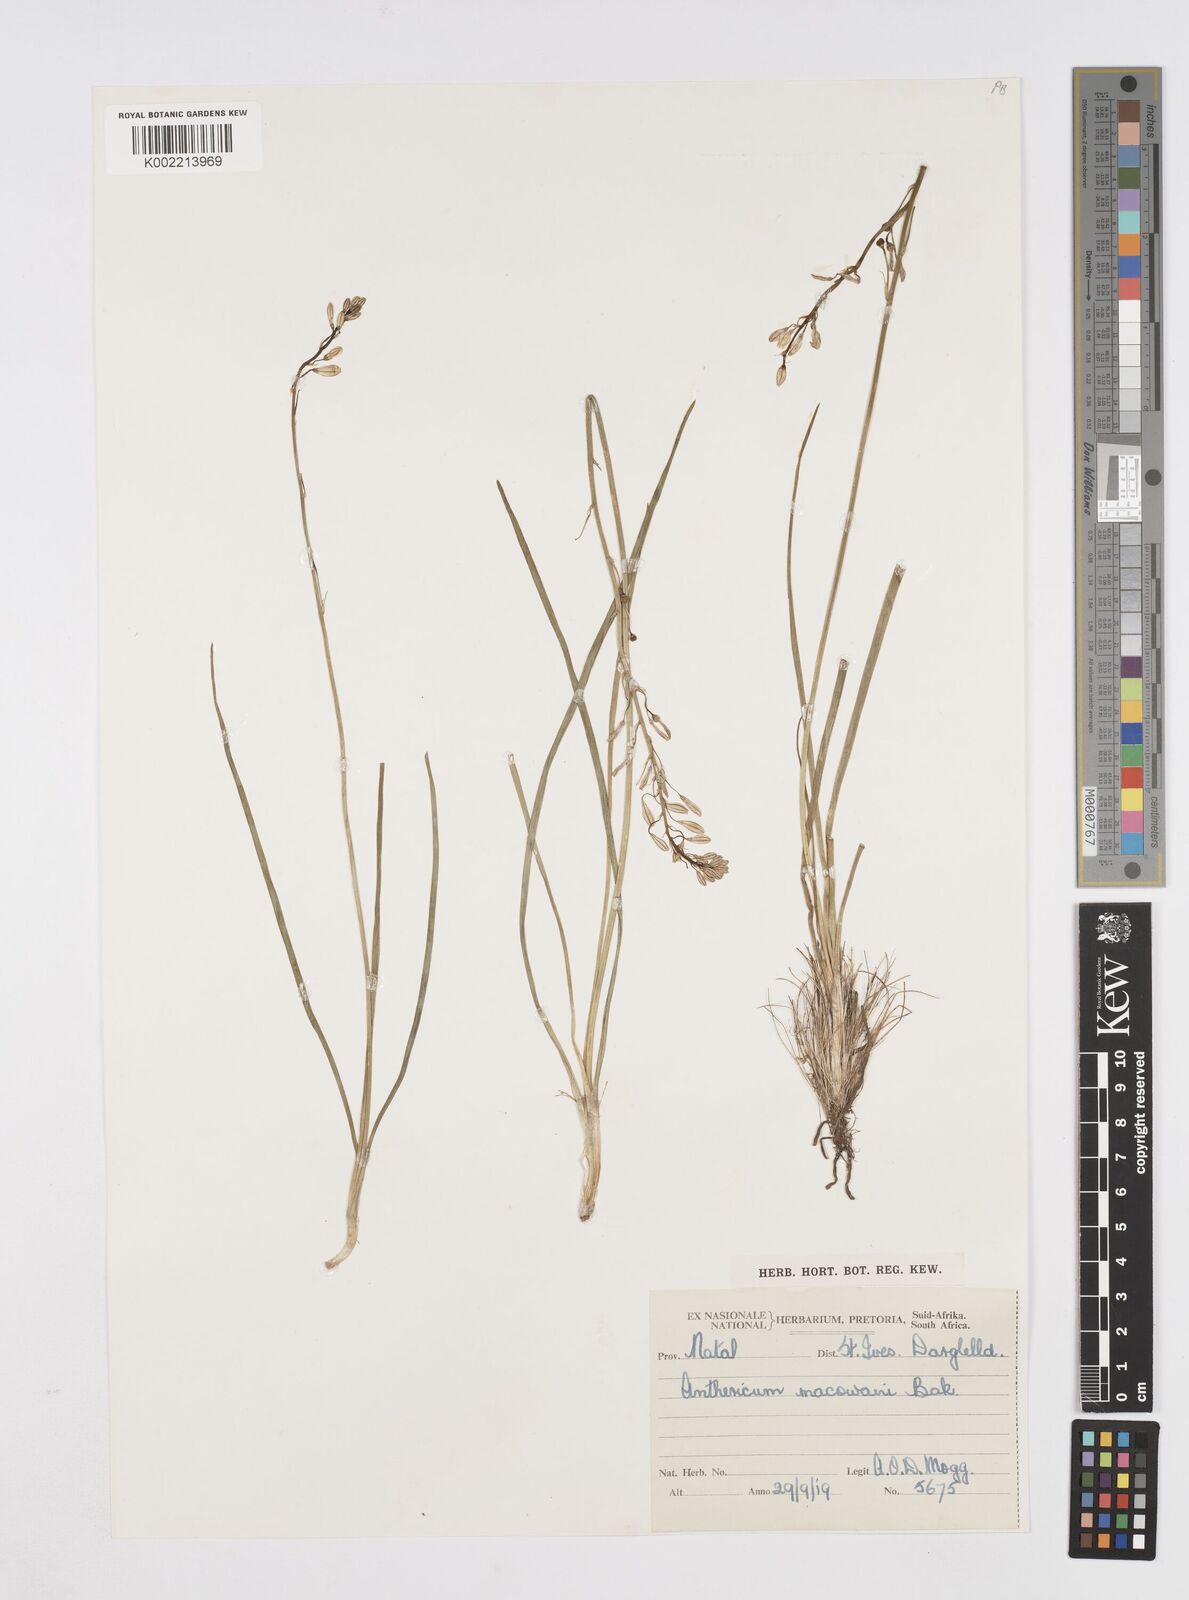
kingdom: Plantae
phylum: Tracheophyta
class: Liliopsida
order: Asparagales
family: Asphodelaceae
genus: Trachyandra
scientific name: Trachyandra asperata
